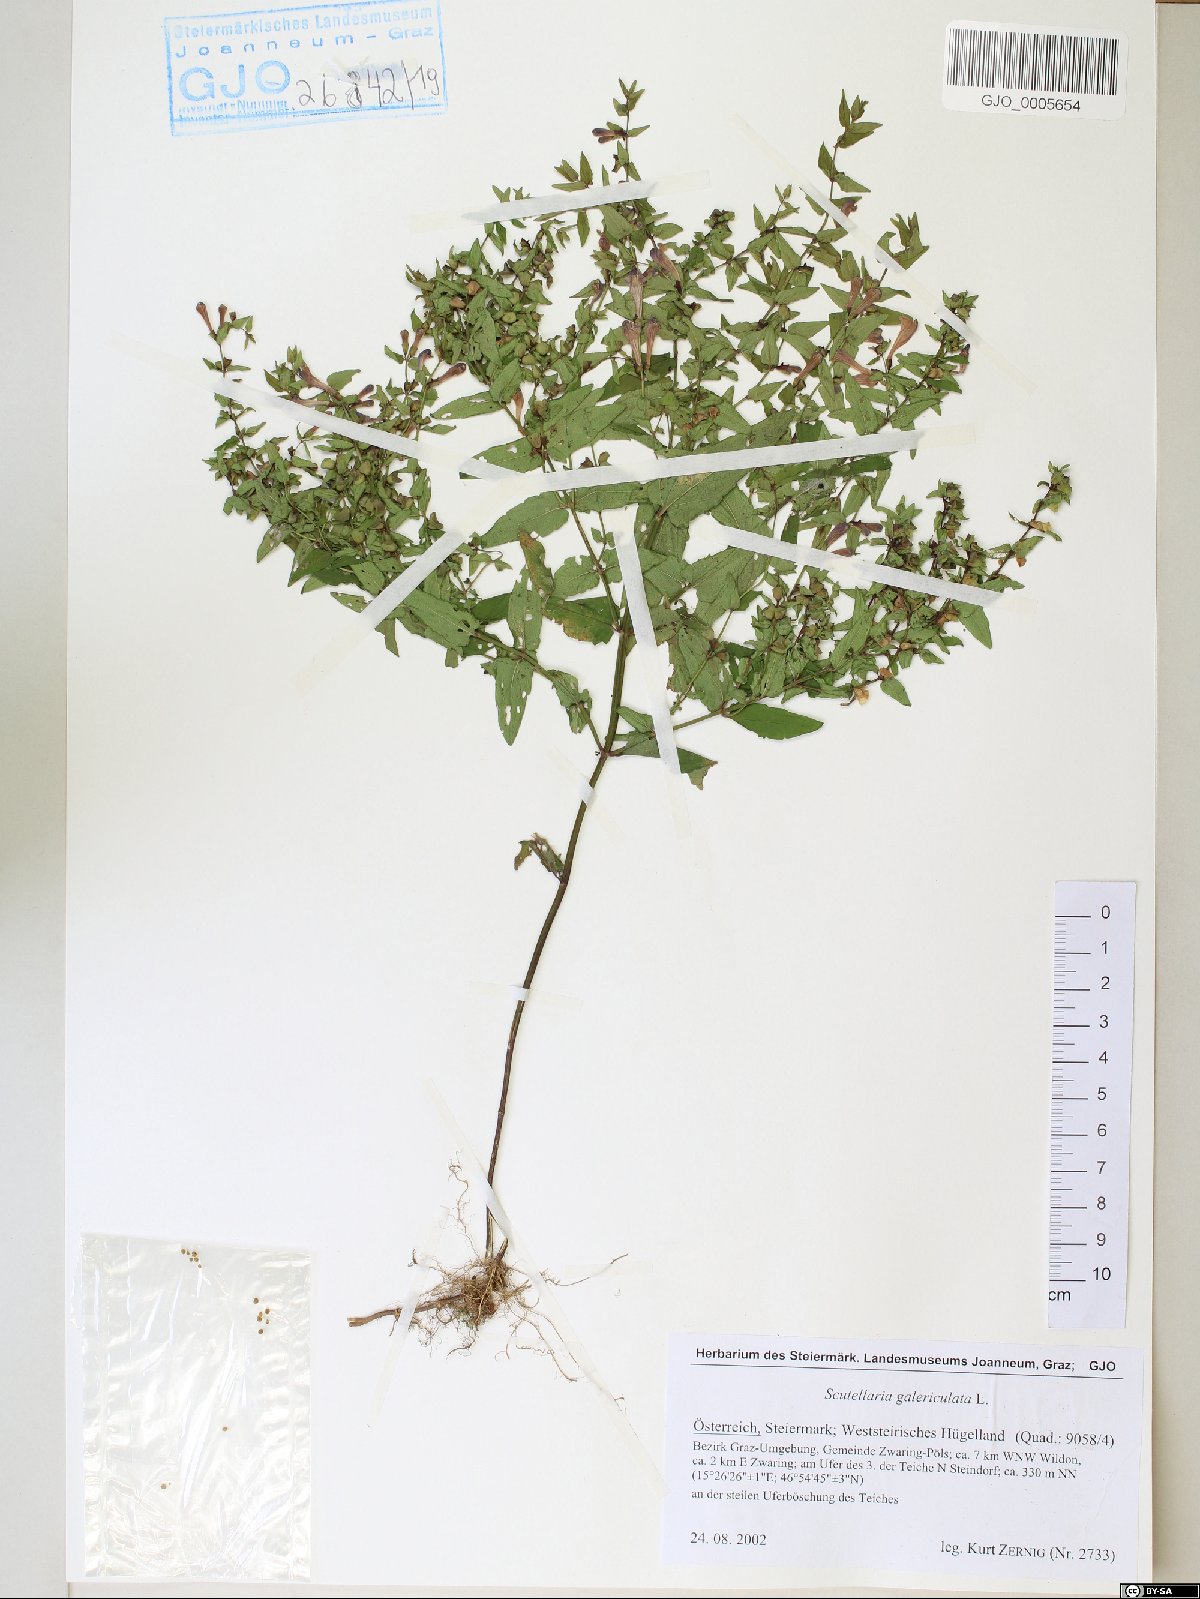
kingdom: Plantae
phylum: Tracheophyta
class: Magnoliopsida
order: Lamiales
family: Lamiaceae
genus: Scutellaria
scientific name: Scutellaria galericulata
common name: Skullcap
